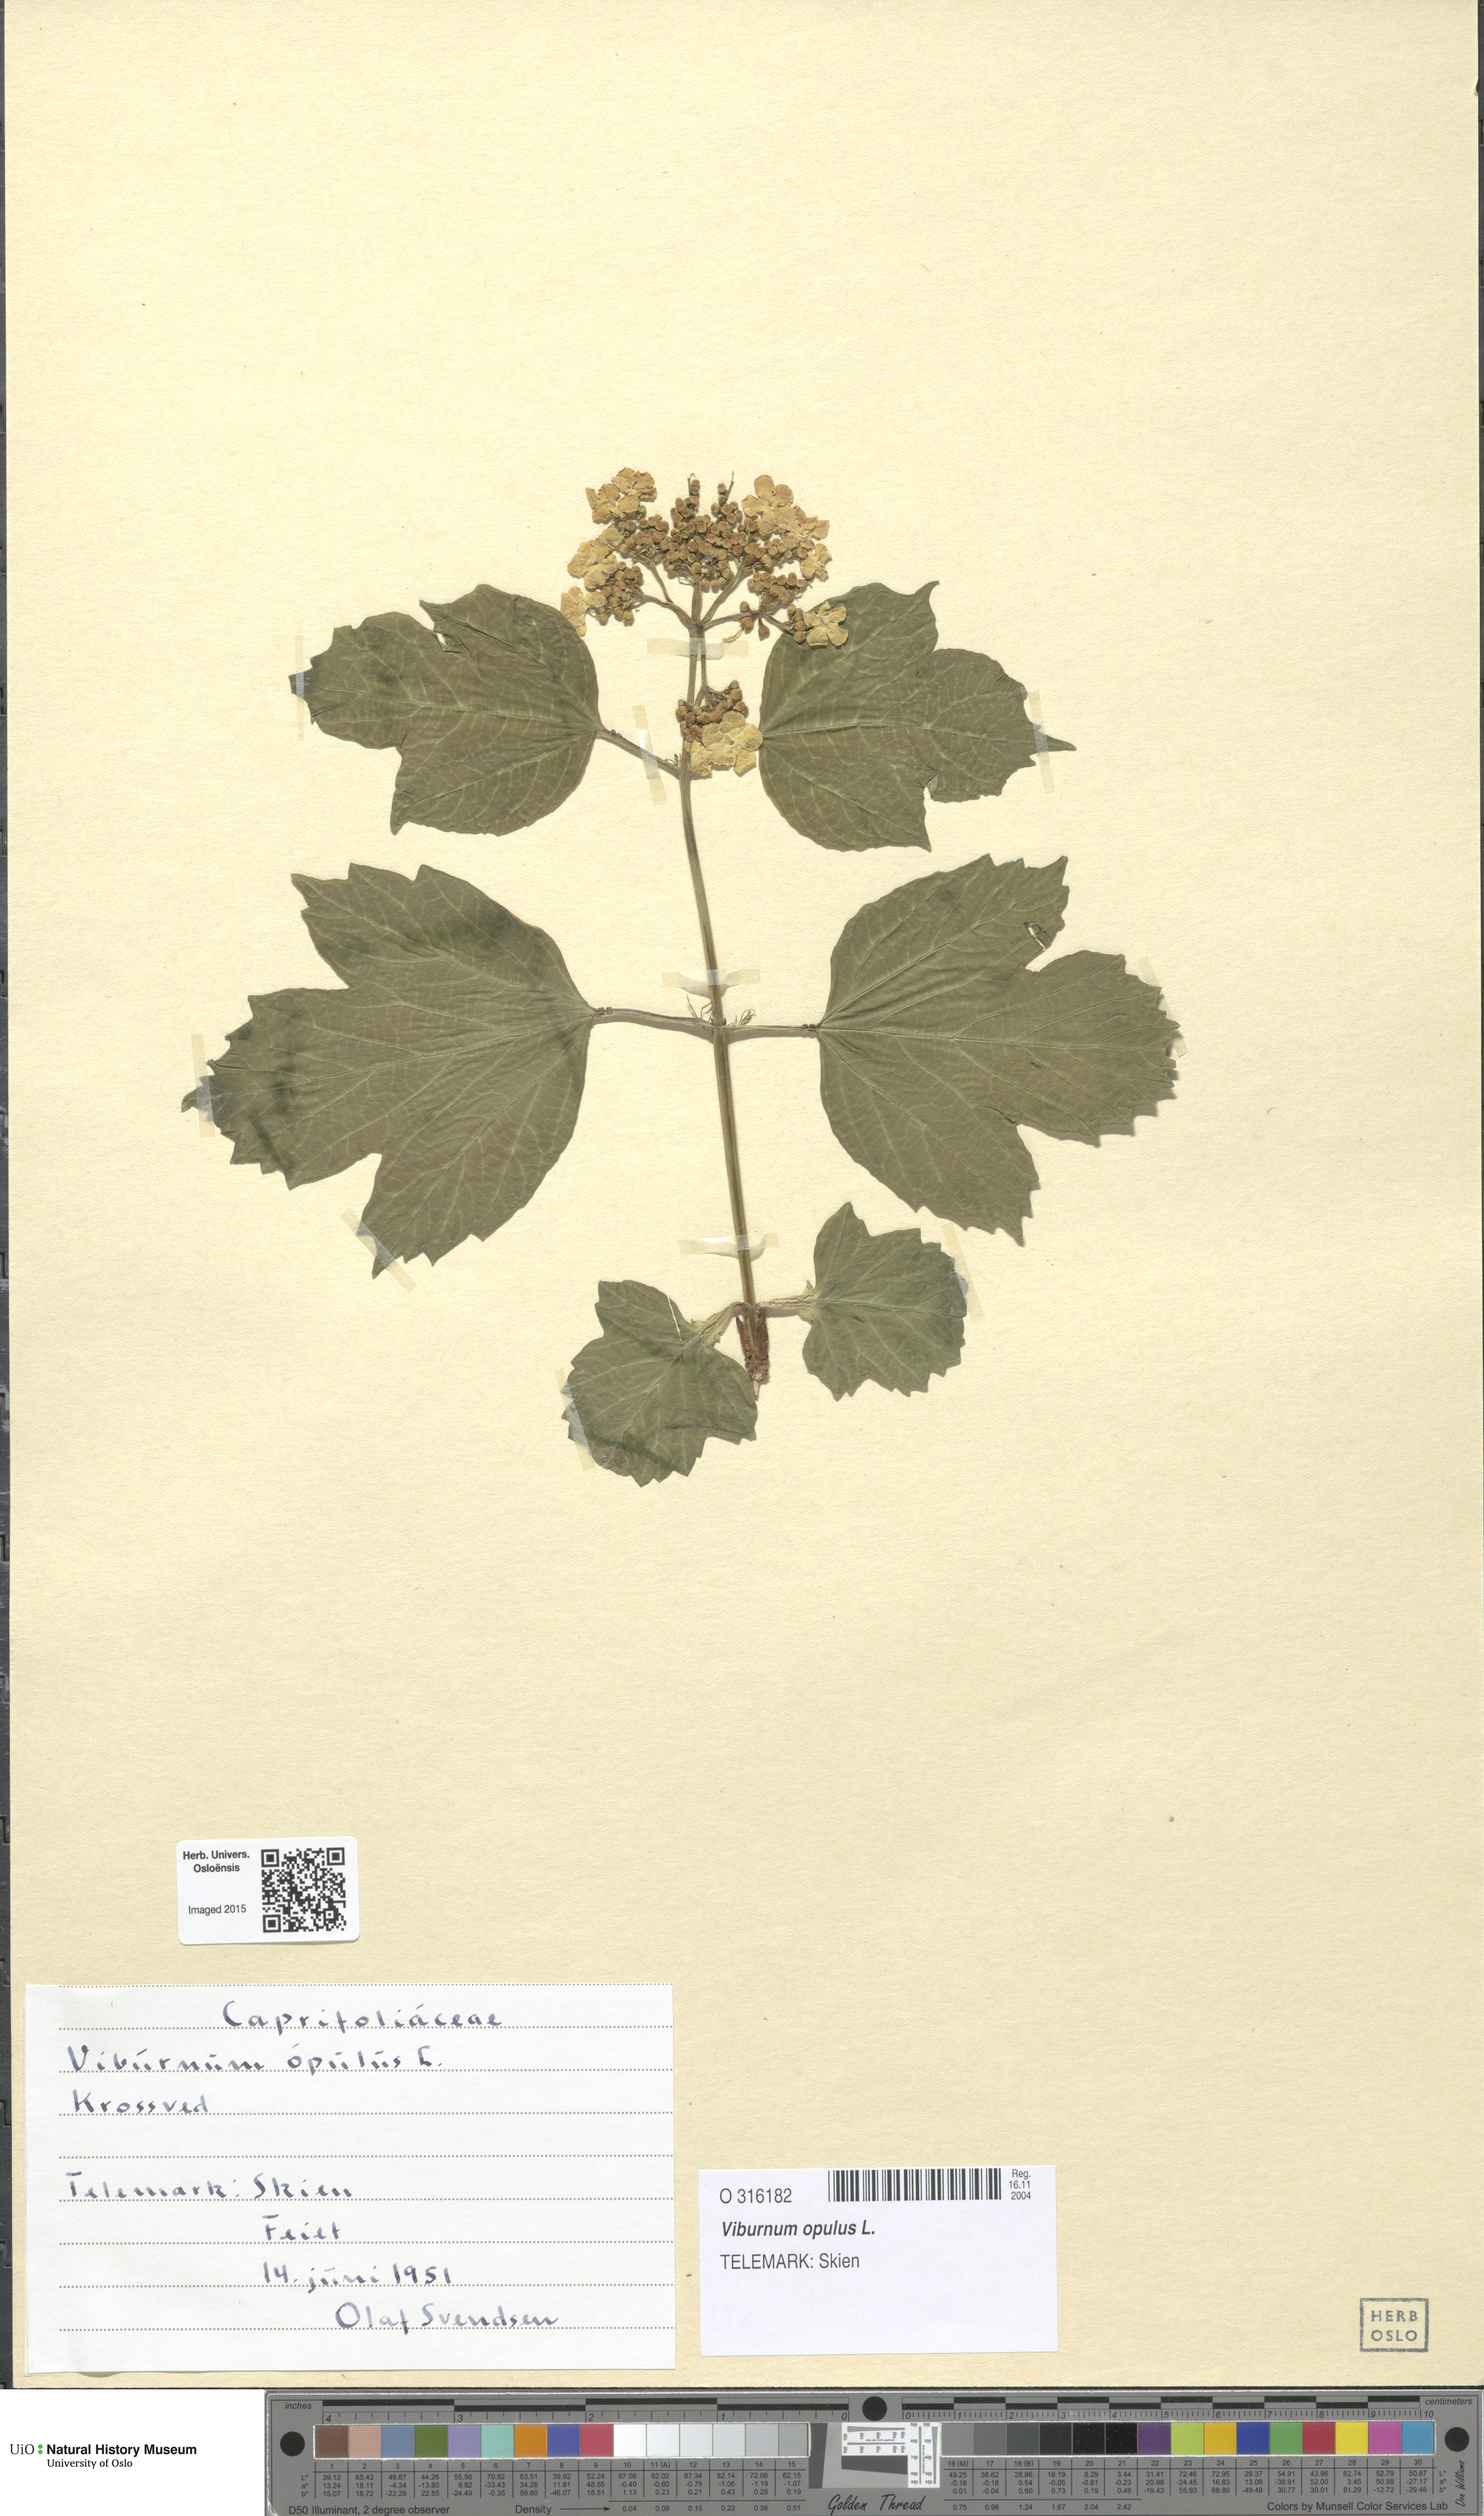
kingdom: Plantae
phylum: Tracheophyta
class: Magnoliopsida
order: Dipsacales
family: Viburnaceae
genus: Viburnum
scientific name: Viburnum opulus
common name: Guelder-rose
